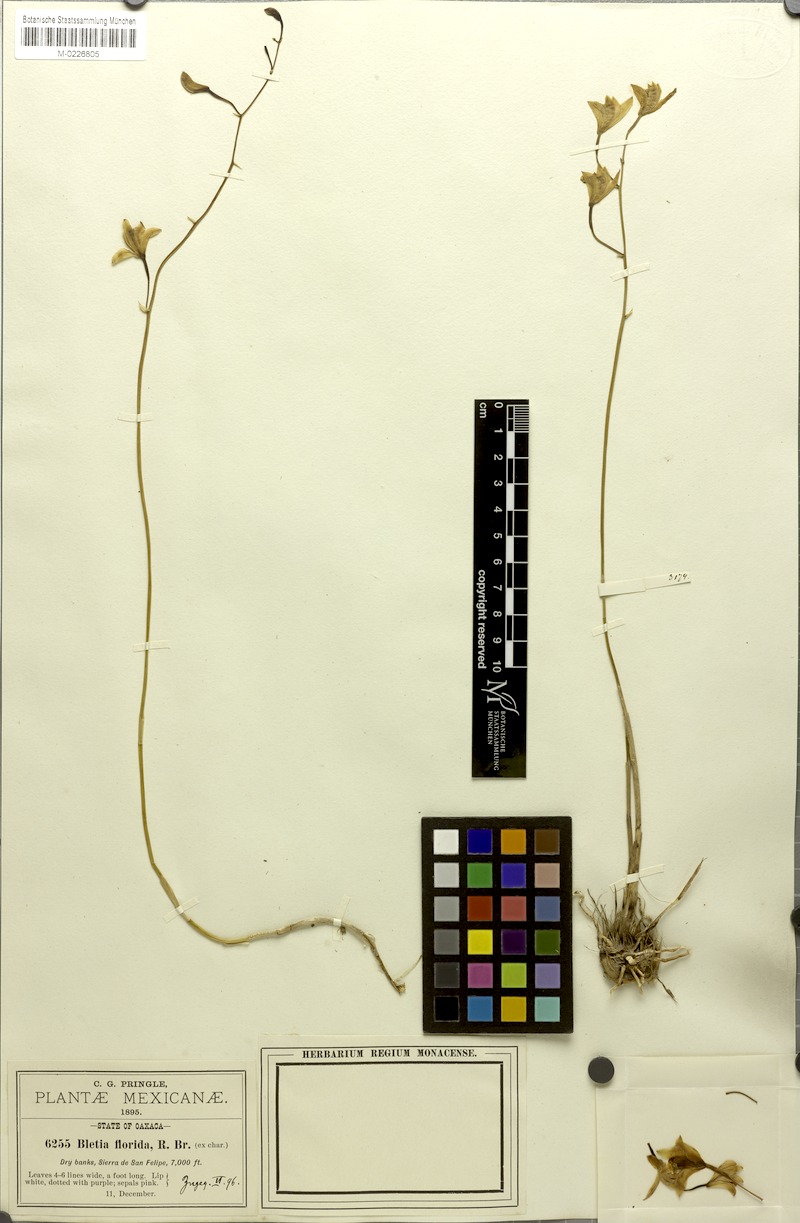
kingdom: Plantae
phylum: Tracheophyta
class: Liliopsida
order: Asparagales
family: Orchidaceae
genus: Bletia
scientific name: Bletia florida
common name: Slender pinepink
